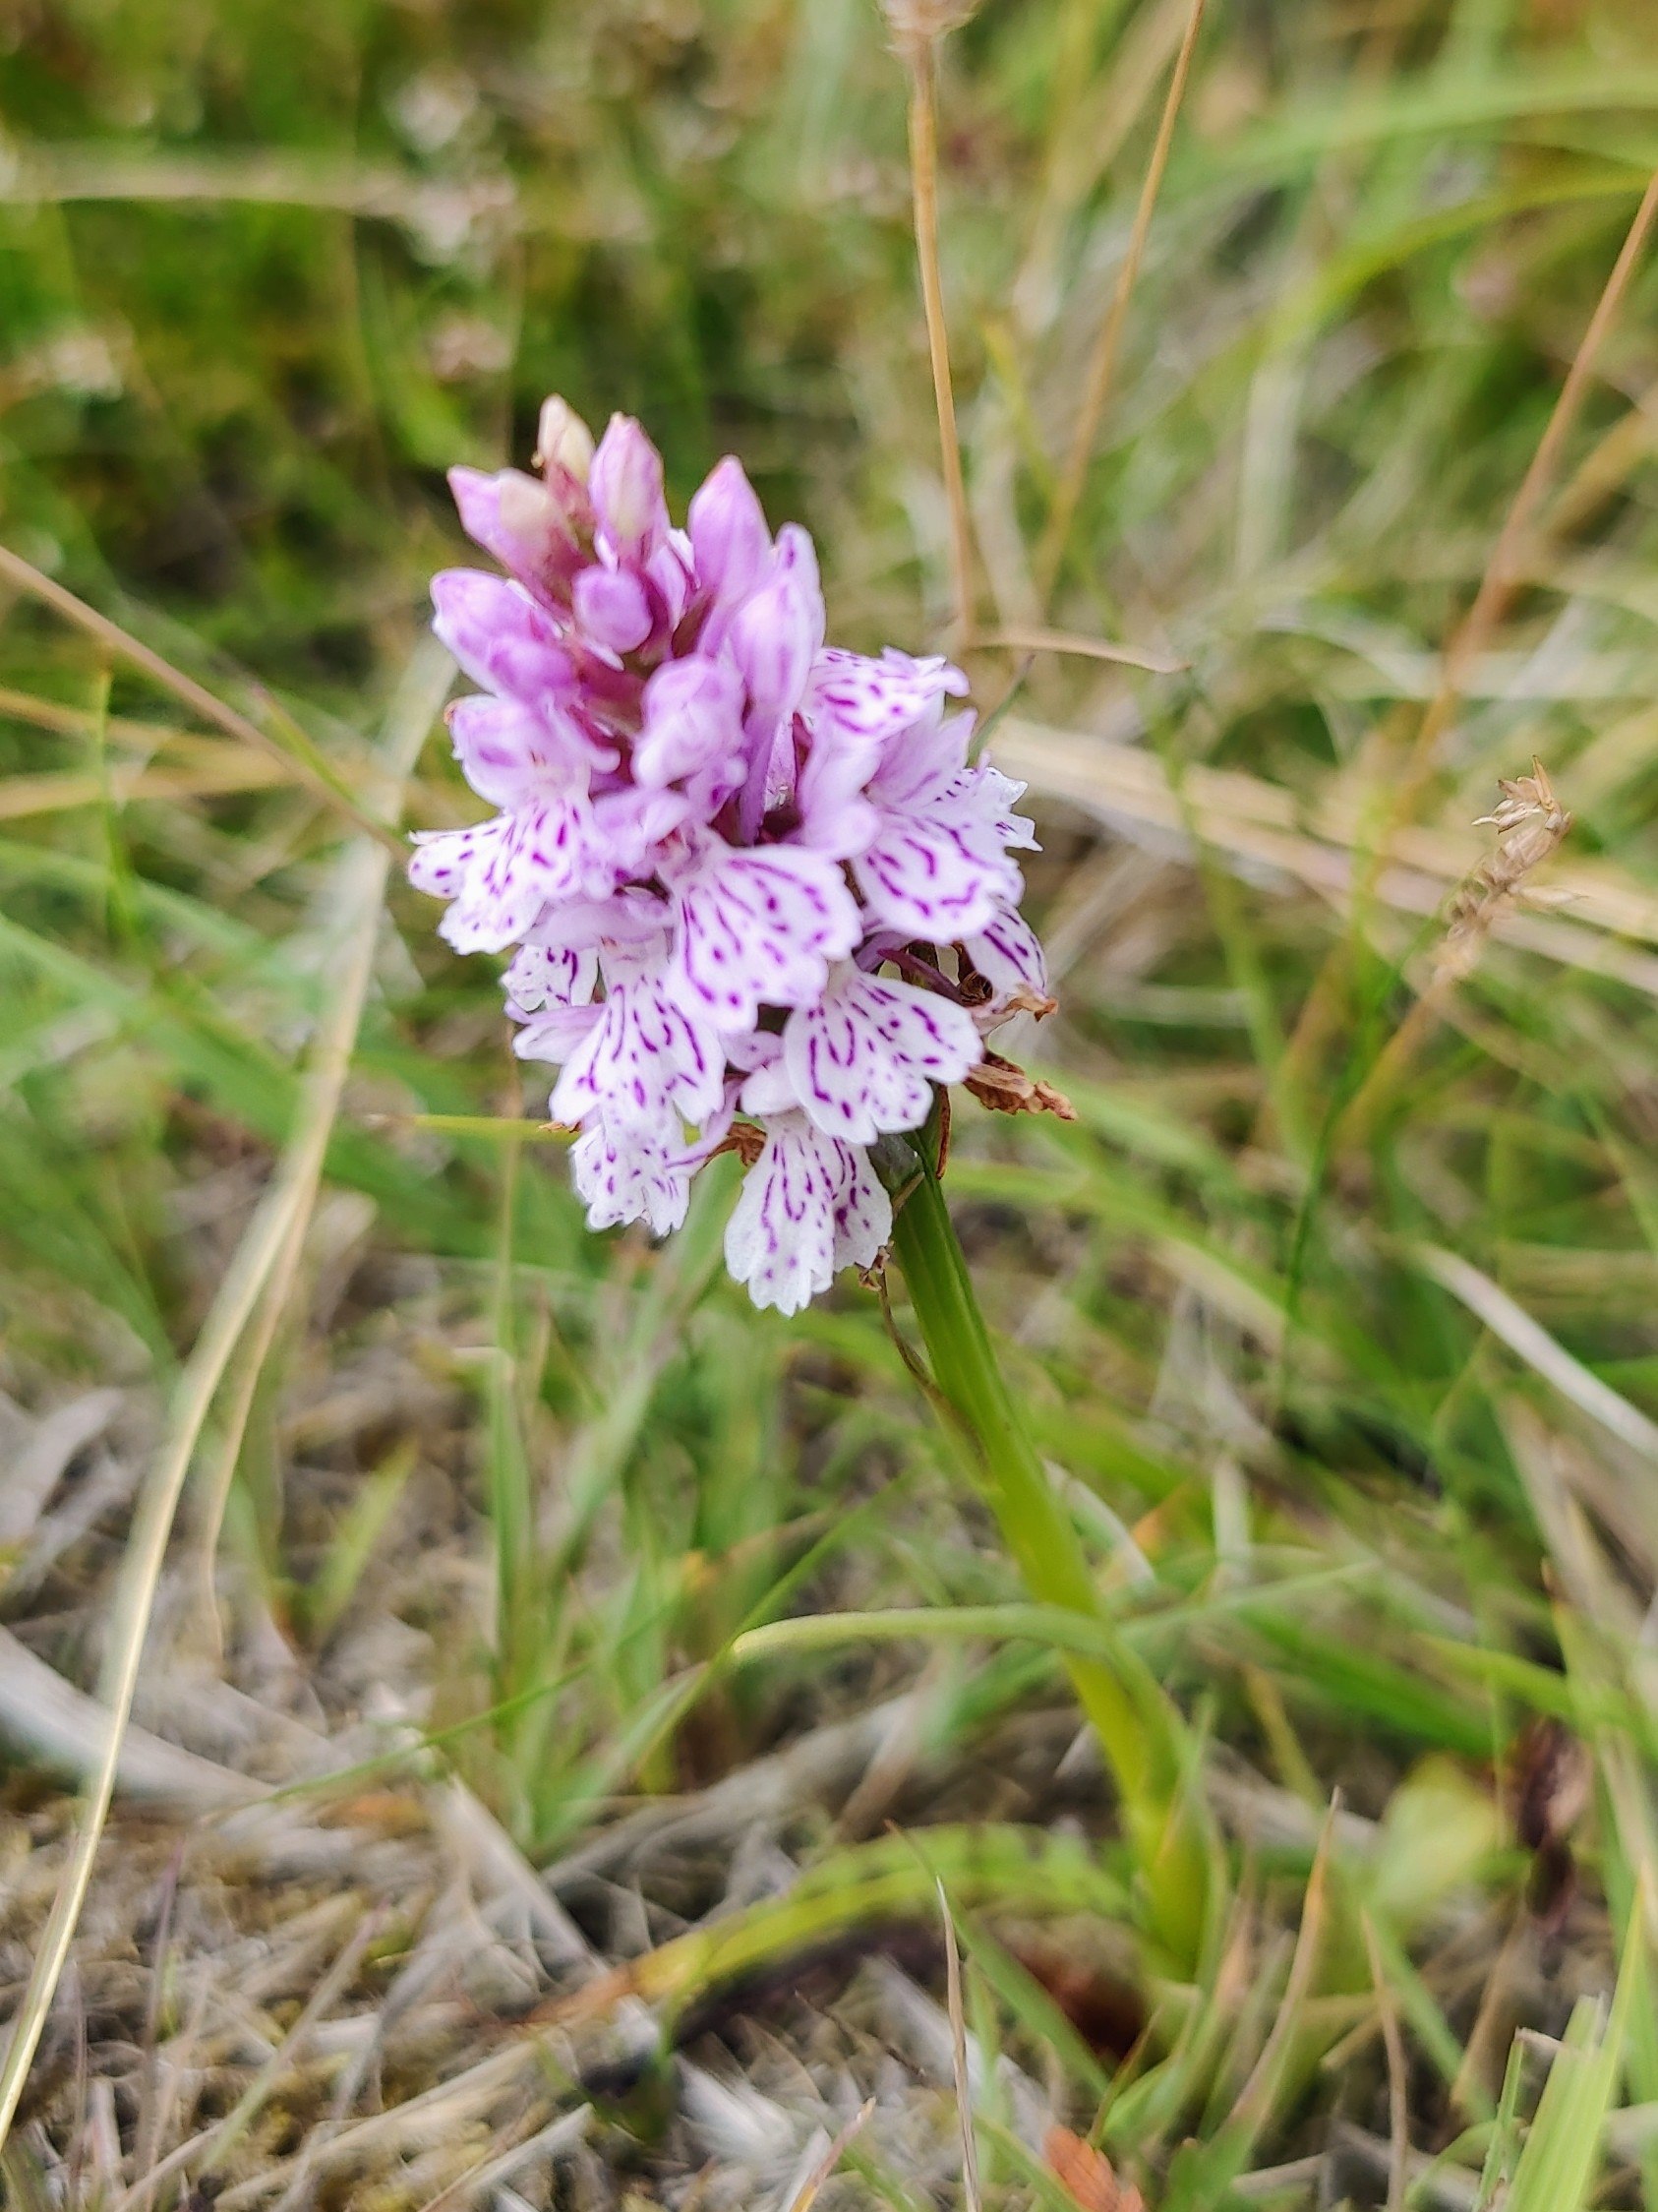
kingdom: Plantae
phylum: Tracheophyta
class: Liliopsida
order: Asparagales
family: Orchidaceae
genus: Dactylorhiza
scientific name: Dactylorhiza maculata
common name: Plettet gøgeurt (underart)
